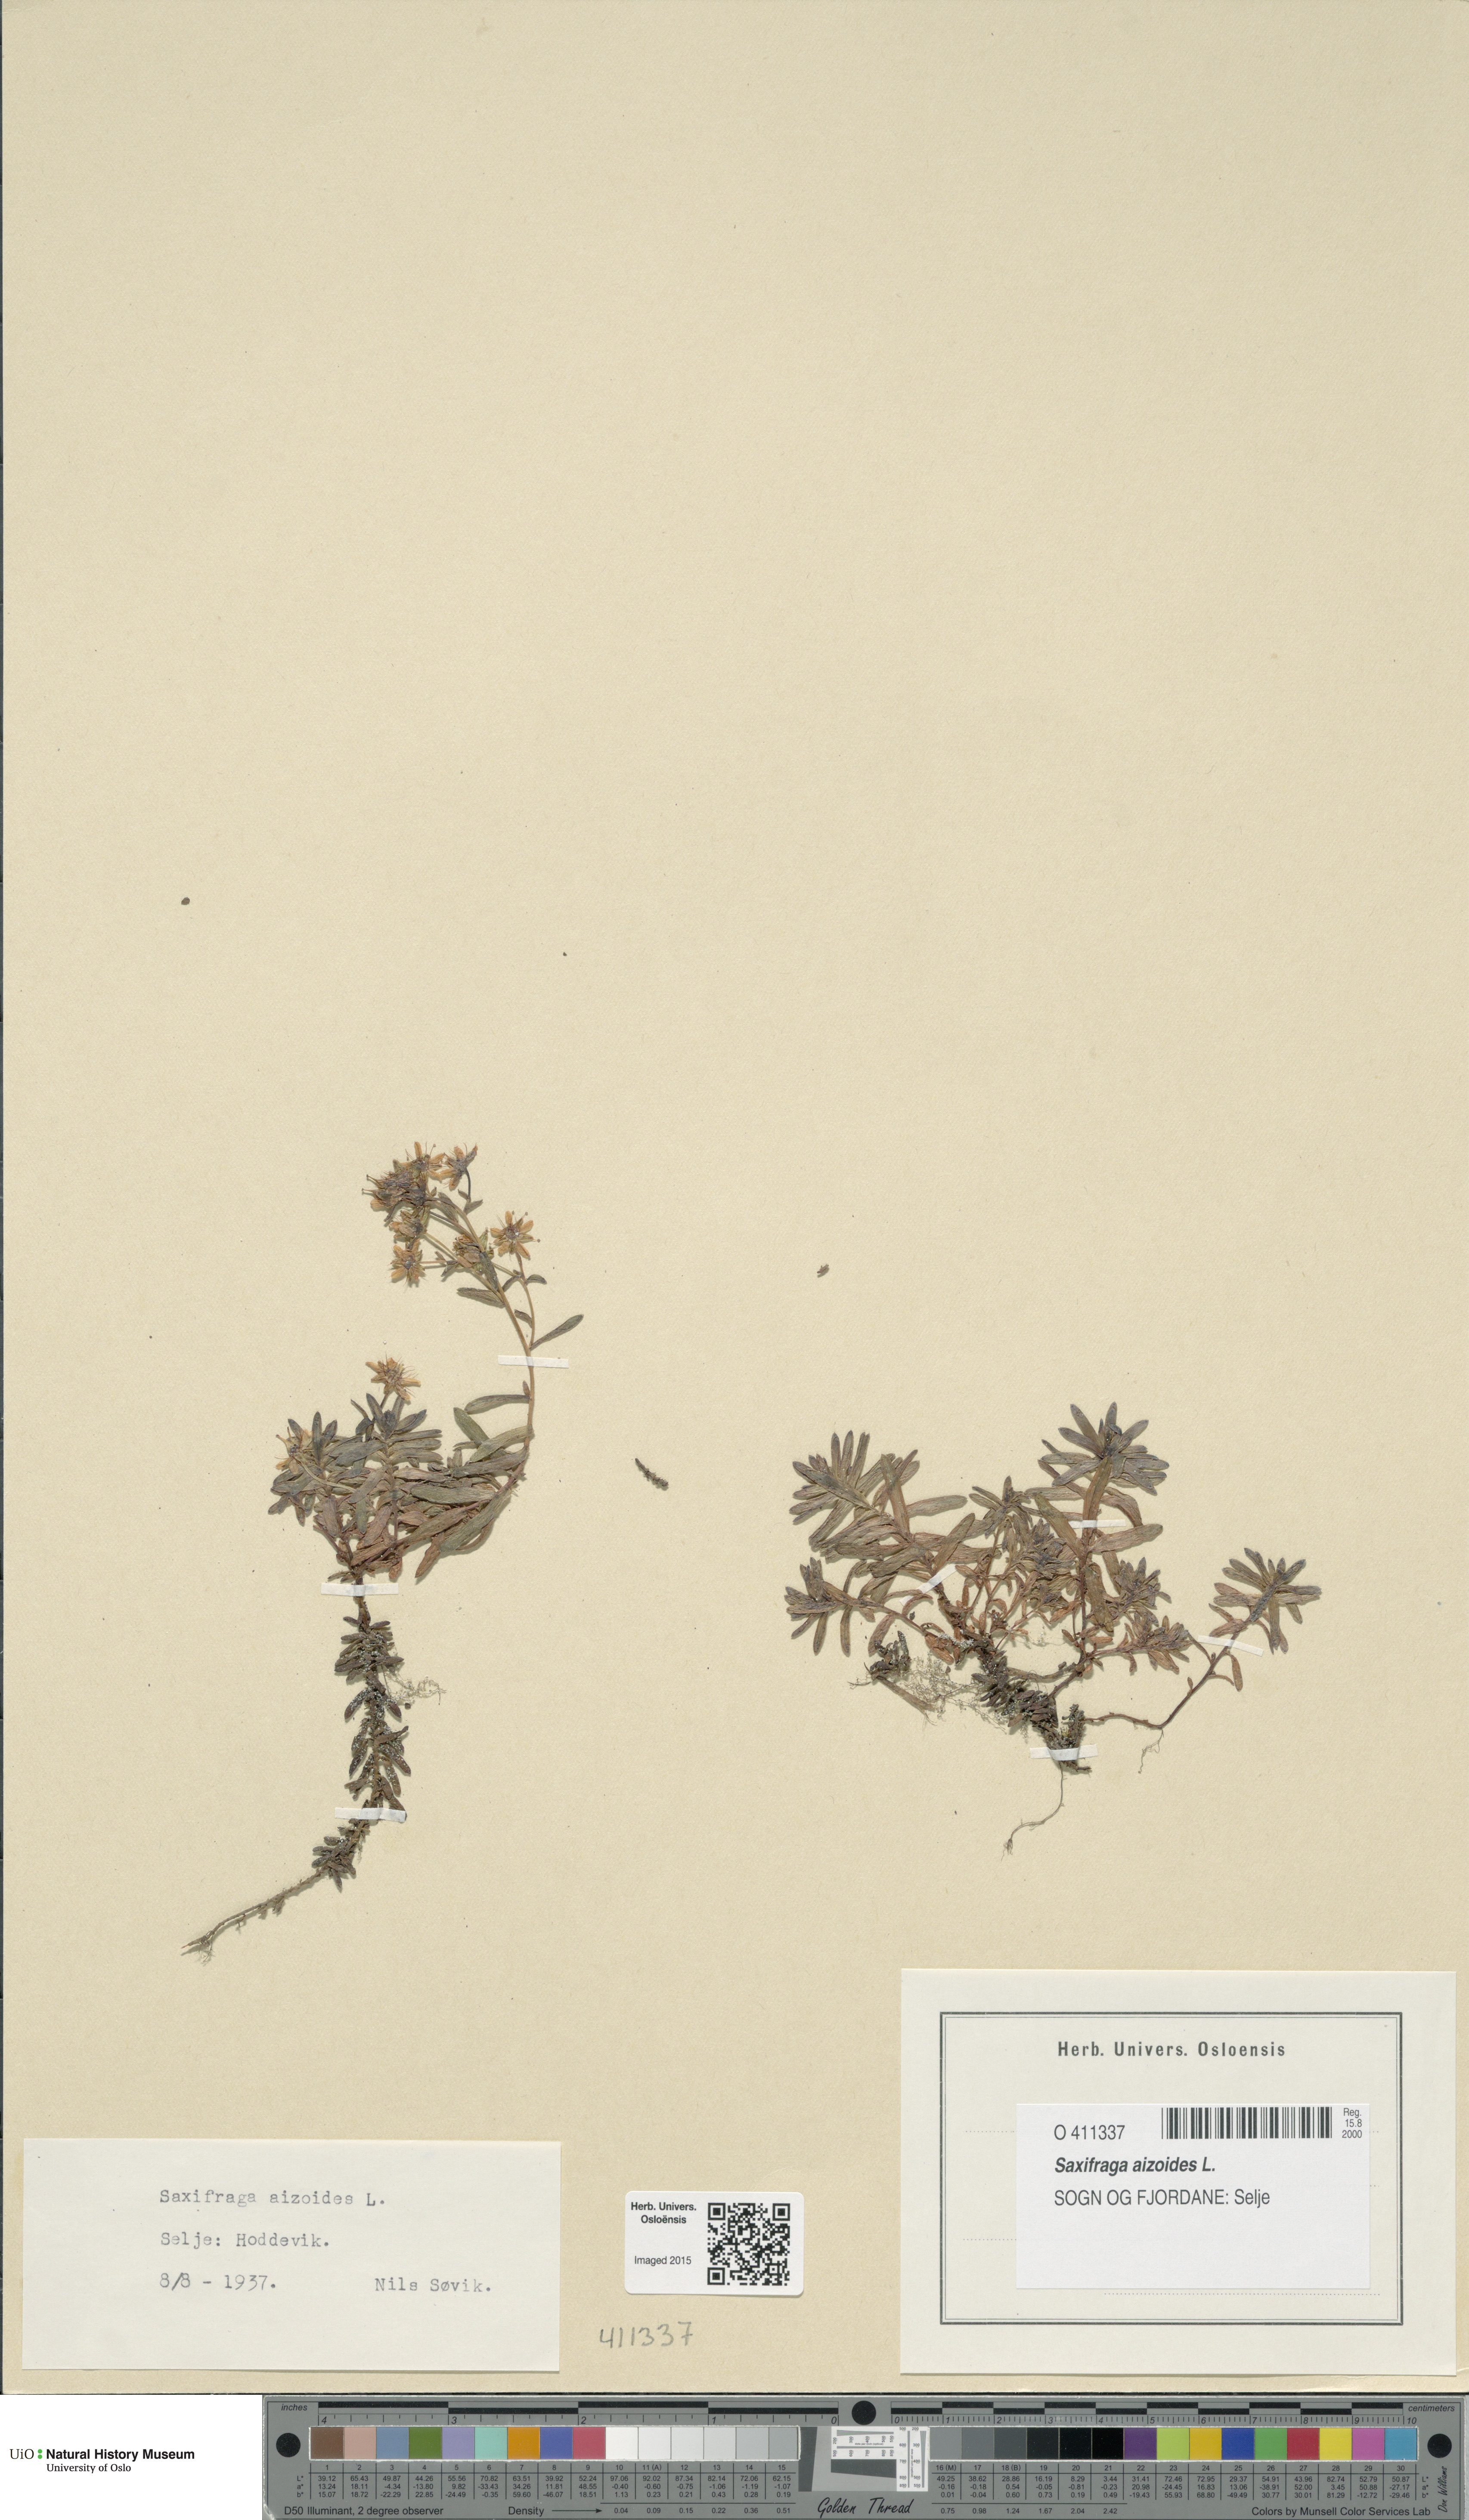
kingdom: Plantae
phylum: Tracheophyta
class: Magnoliopsida
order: Saxifragales
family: Saxifragaceae
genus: Saxifraga
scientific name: Saxifraga aizoides
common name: Yellow mountain saxifrage
